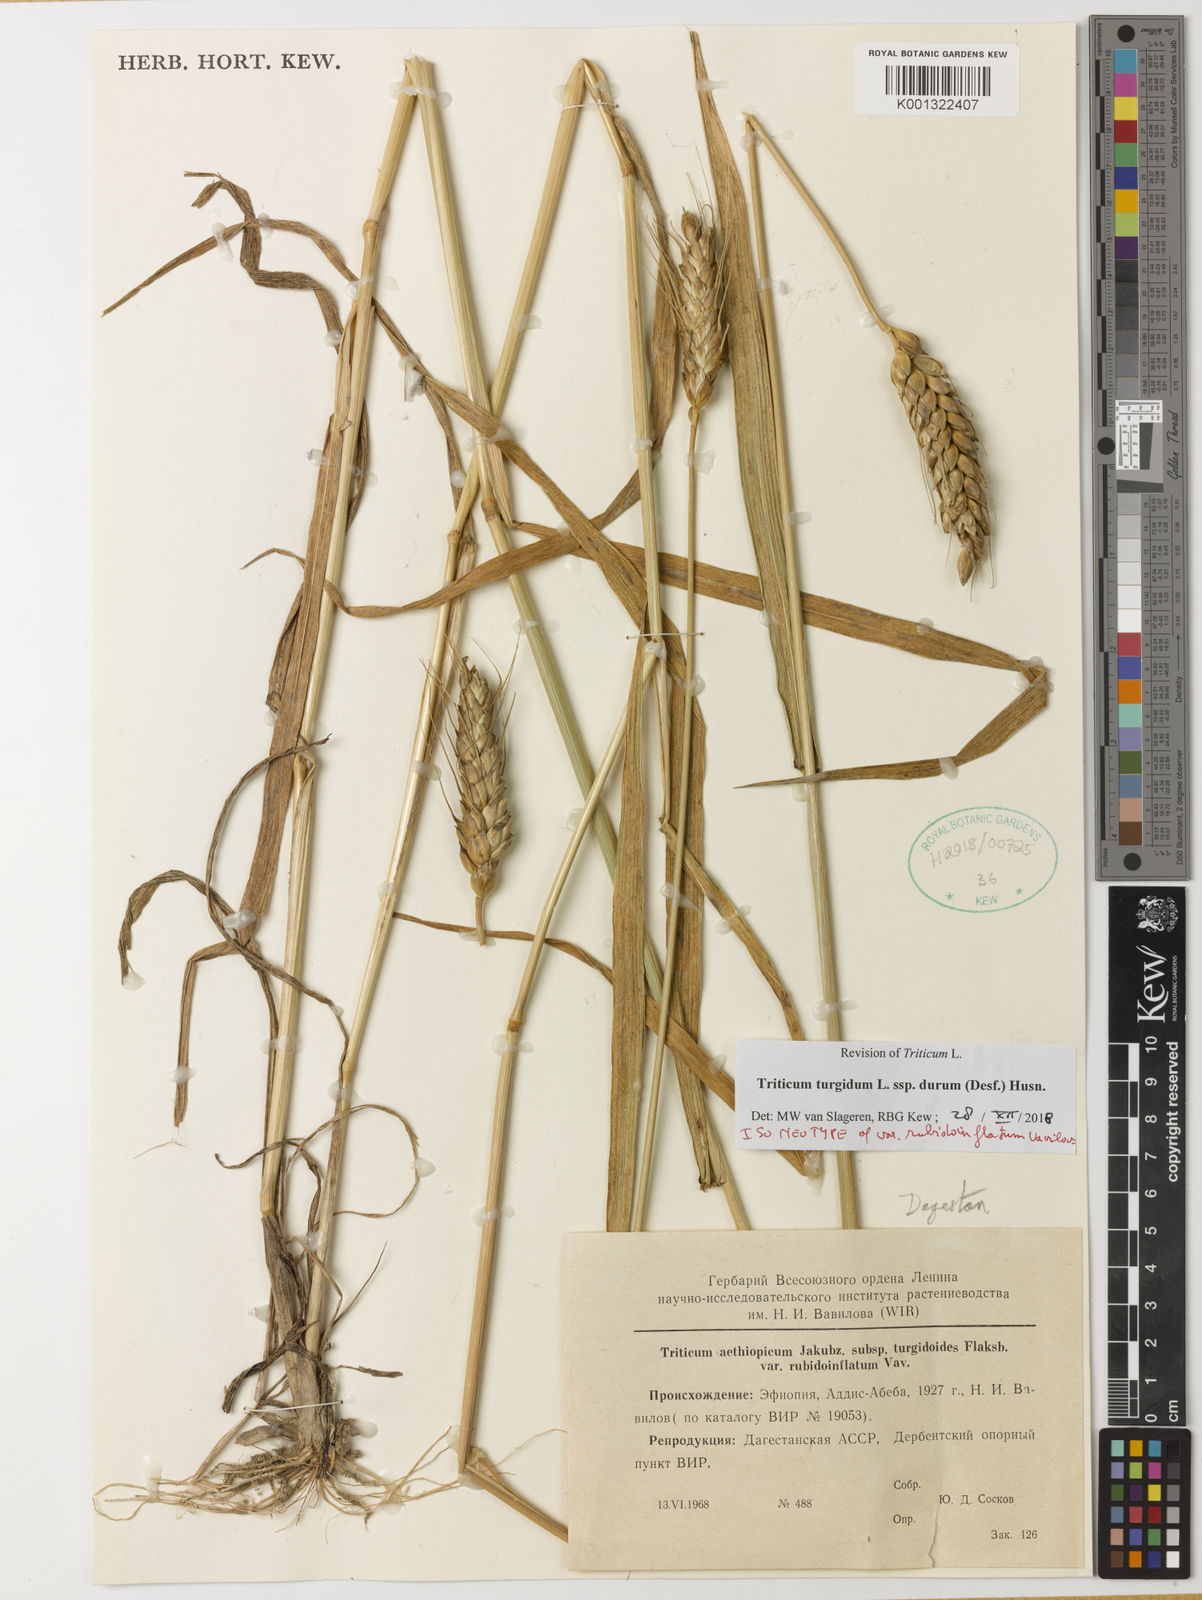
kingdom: Plantae
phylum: Tracheophyta
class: Liliopsida
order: Poales
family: Poaceae
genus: Triticum
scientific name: Triticum turgidum
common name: Rivet wheat
